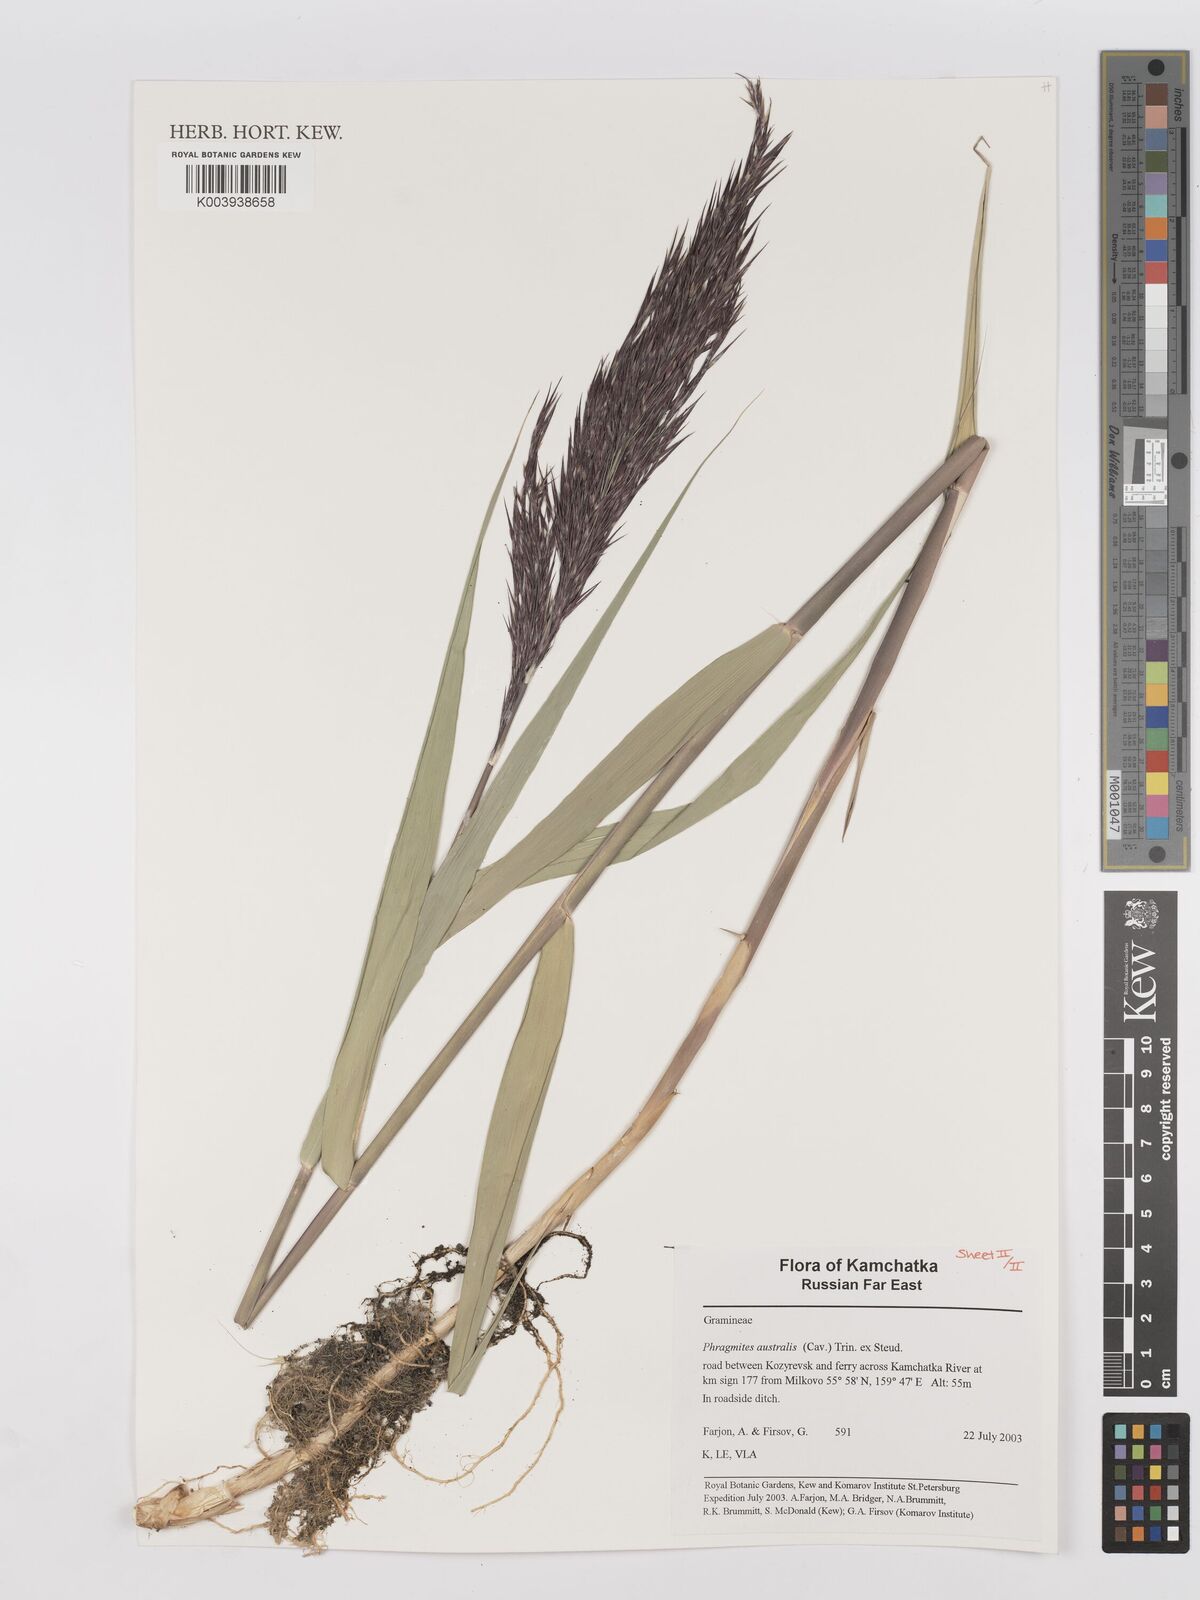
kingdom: Plantae
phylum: Tracheophyta
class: Liliopsida
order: Poales
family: Poaceae
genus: Phragmites
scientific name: Phragmites australis
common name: Common reed
